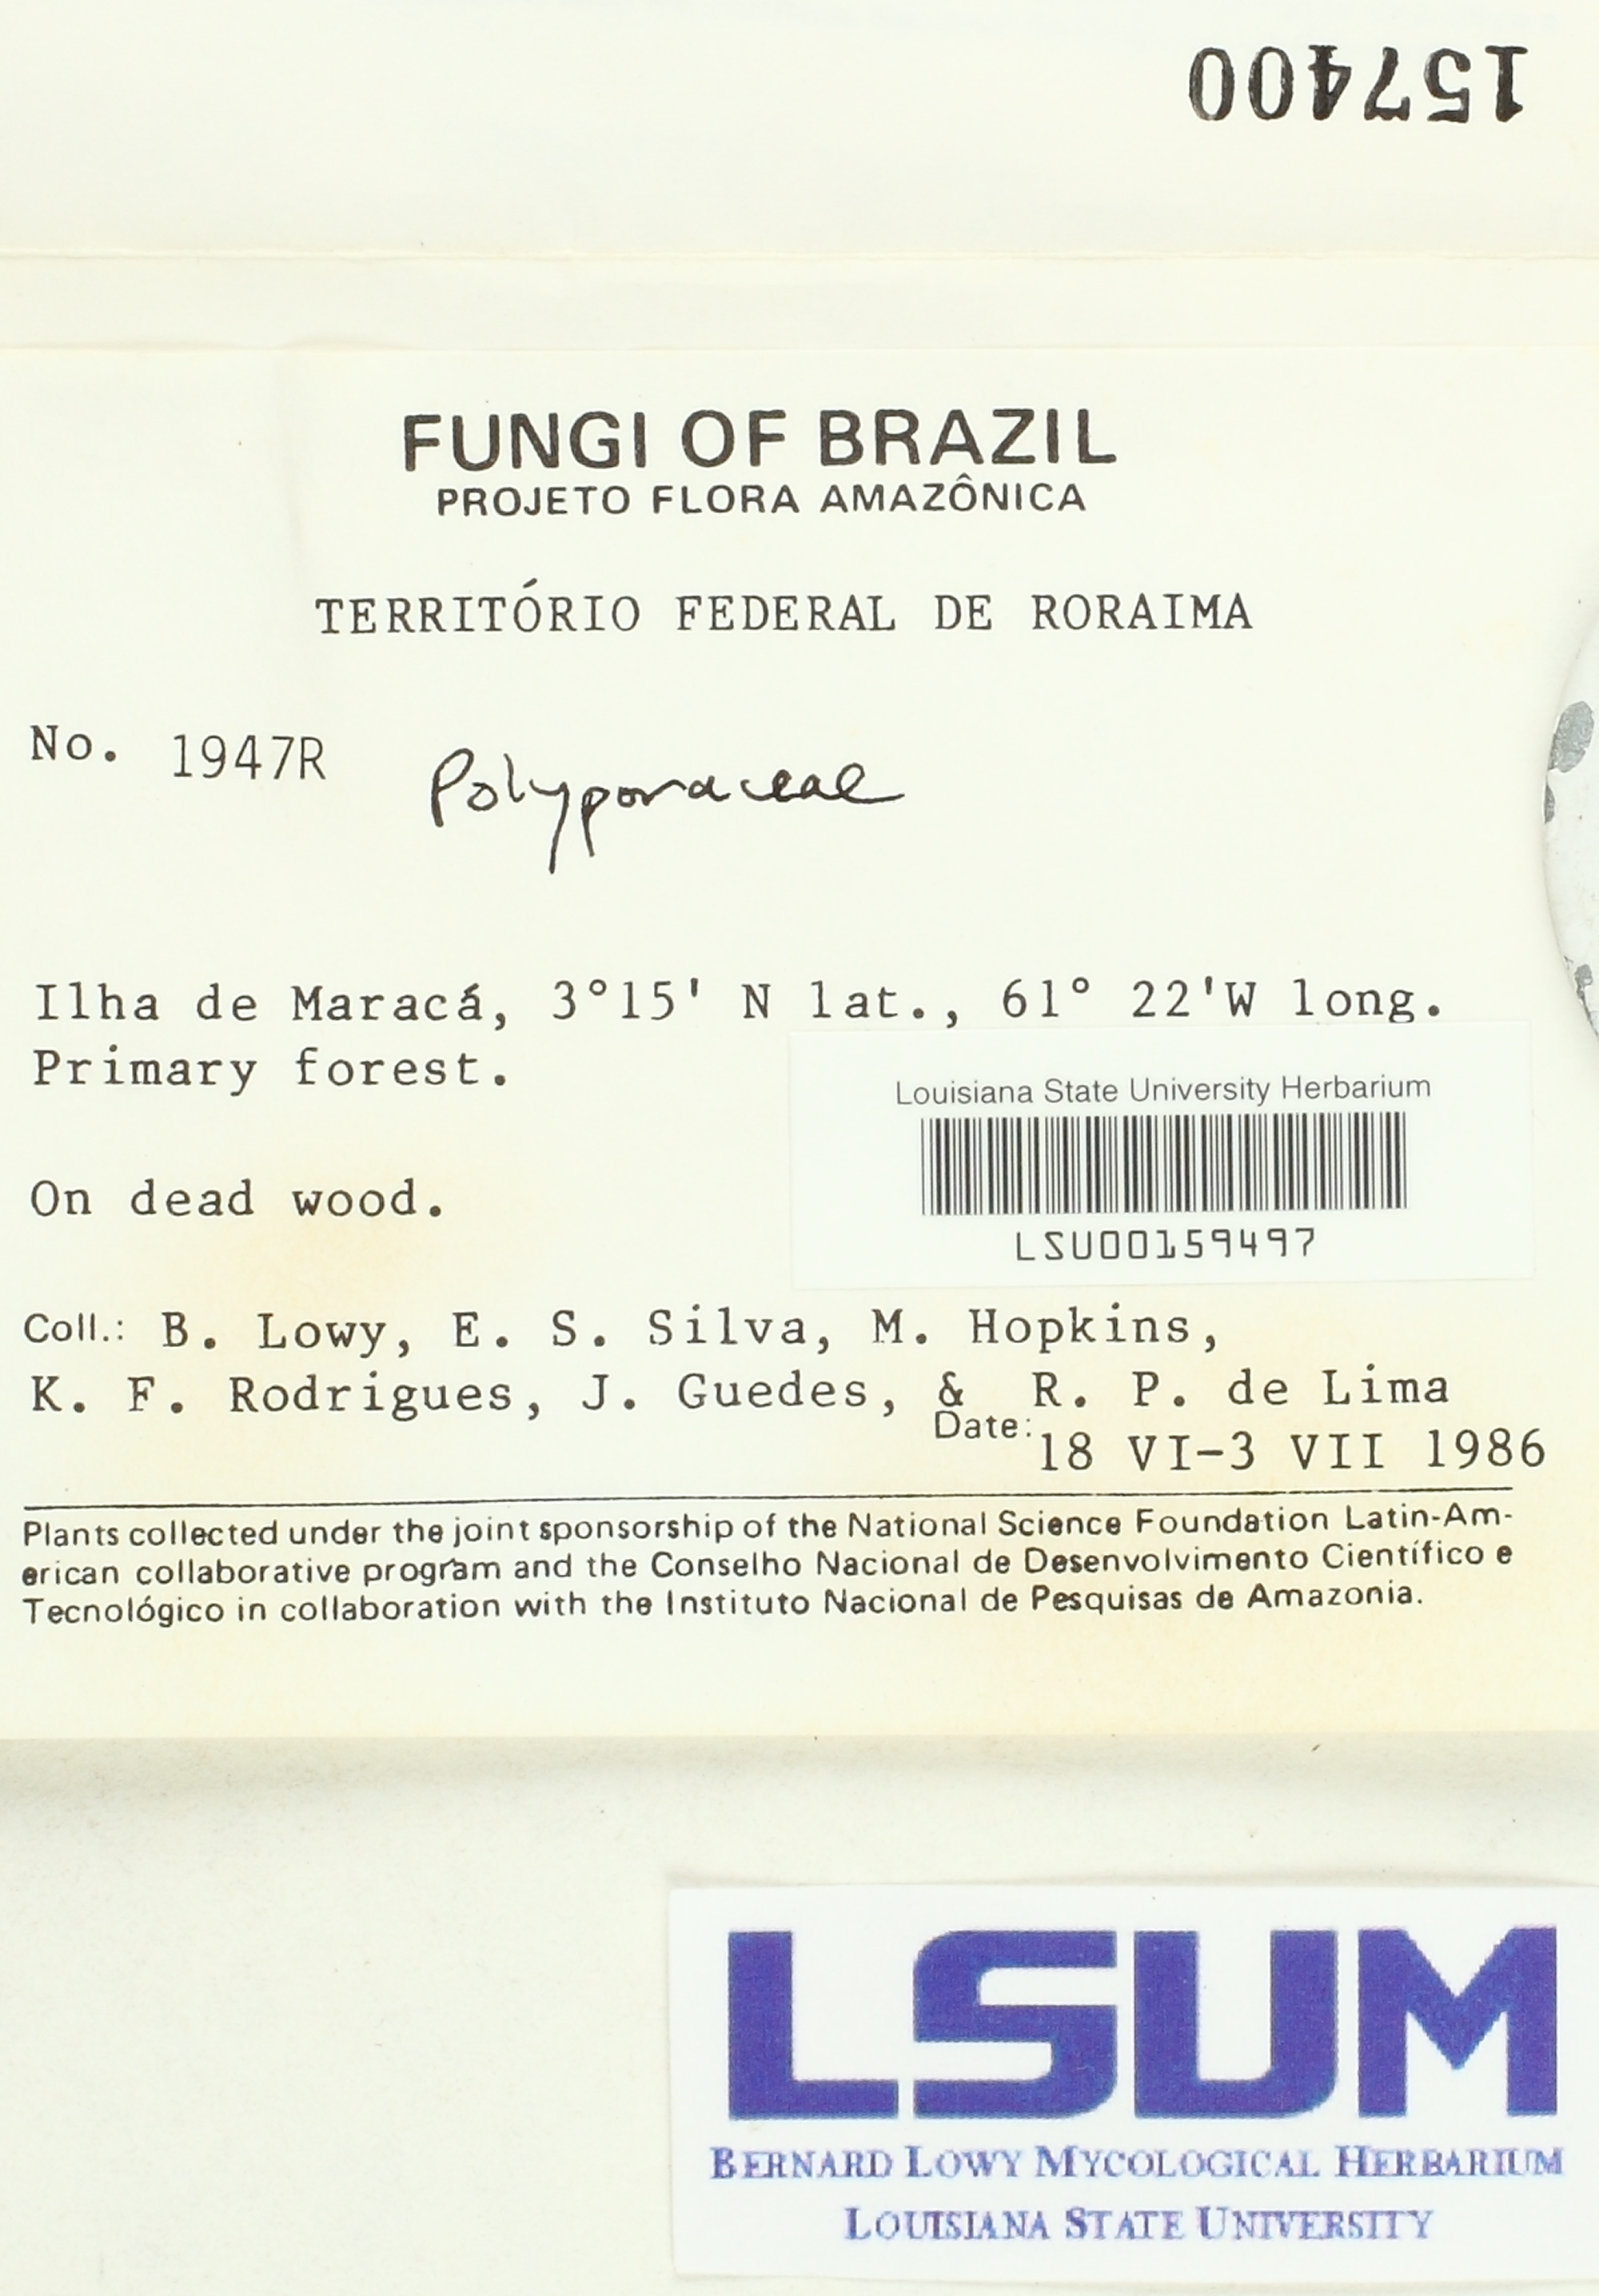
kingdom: Fungi
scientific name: Fungi
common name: Fungi
